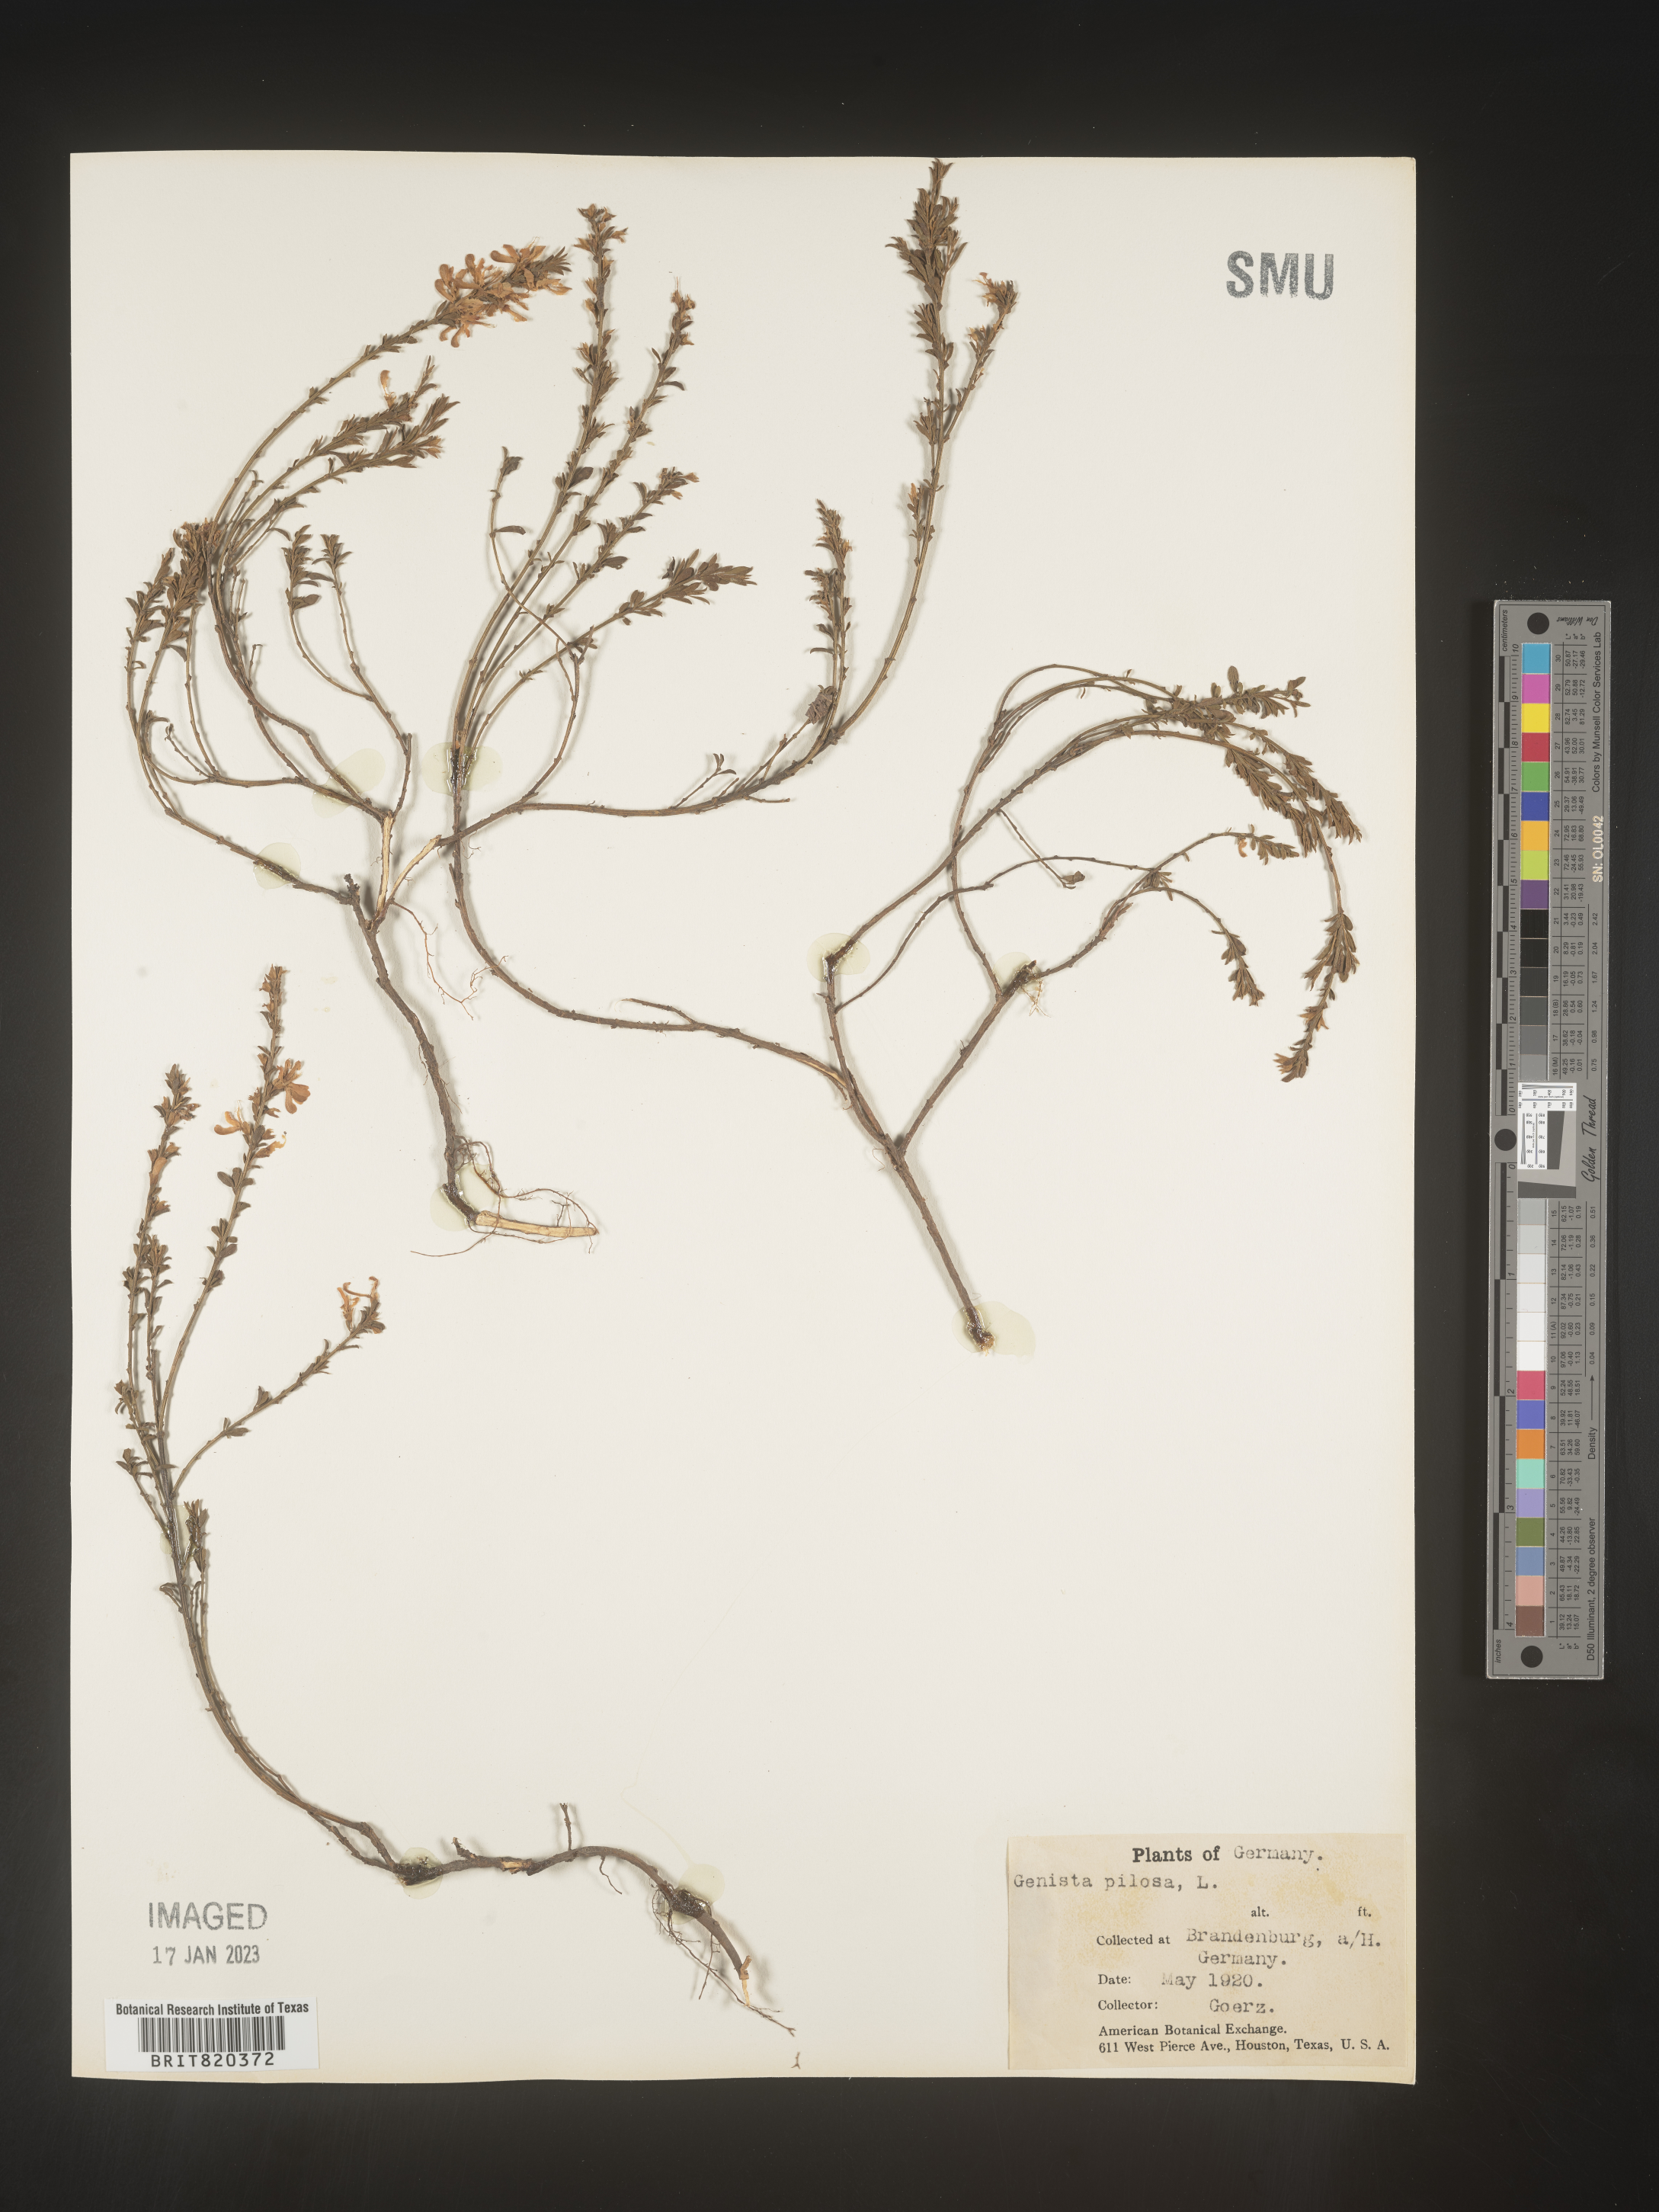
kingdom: Plantae
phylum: Tracheophyta
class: Magnoliopsida
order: Fabales
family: Fabaceae
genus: Genista
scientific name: Genista
